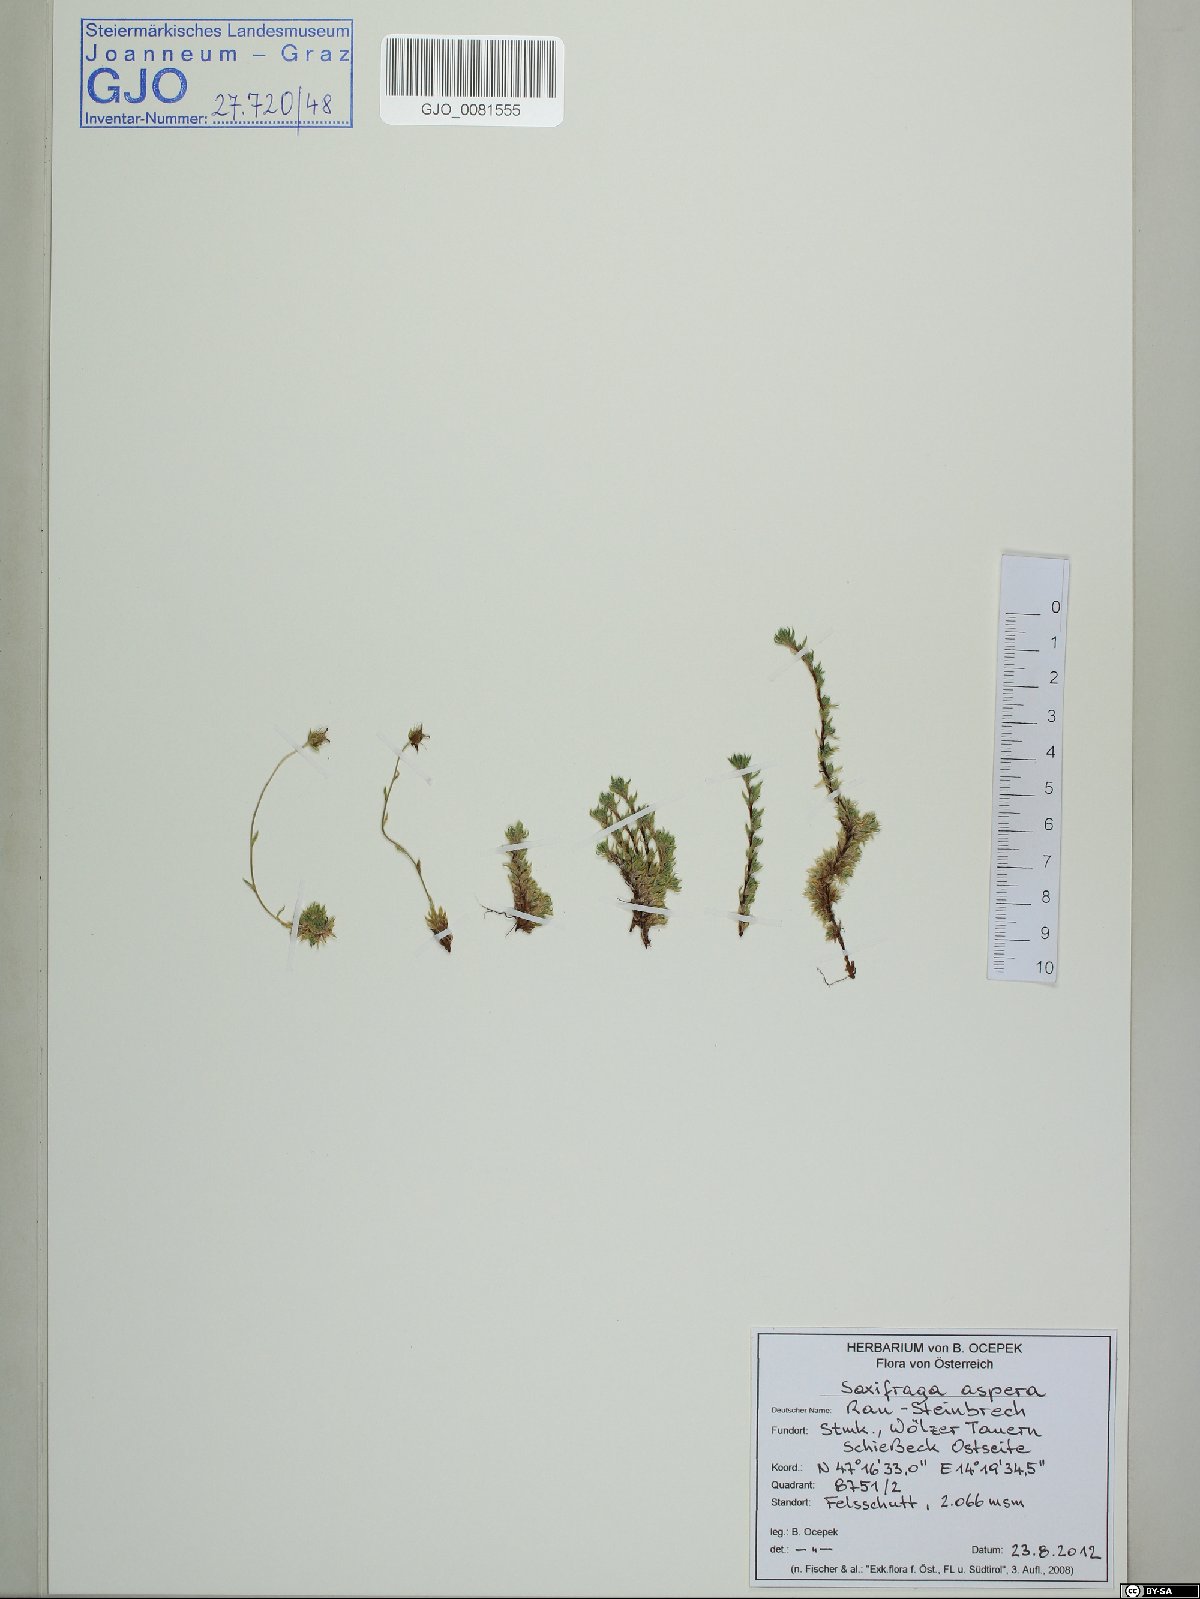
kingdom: Plantae
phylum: Tracheophyta
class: Magnoliopsida
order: Saxifragales
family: Saxifragaceae
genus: Saxifraga
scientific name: Saxifraga aspera
